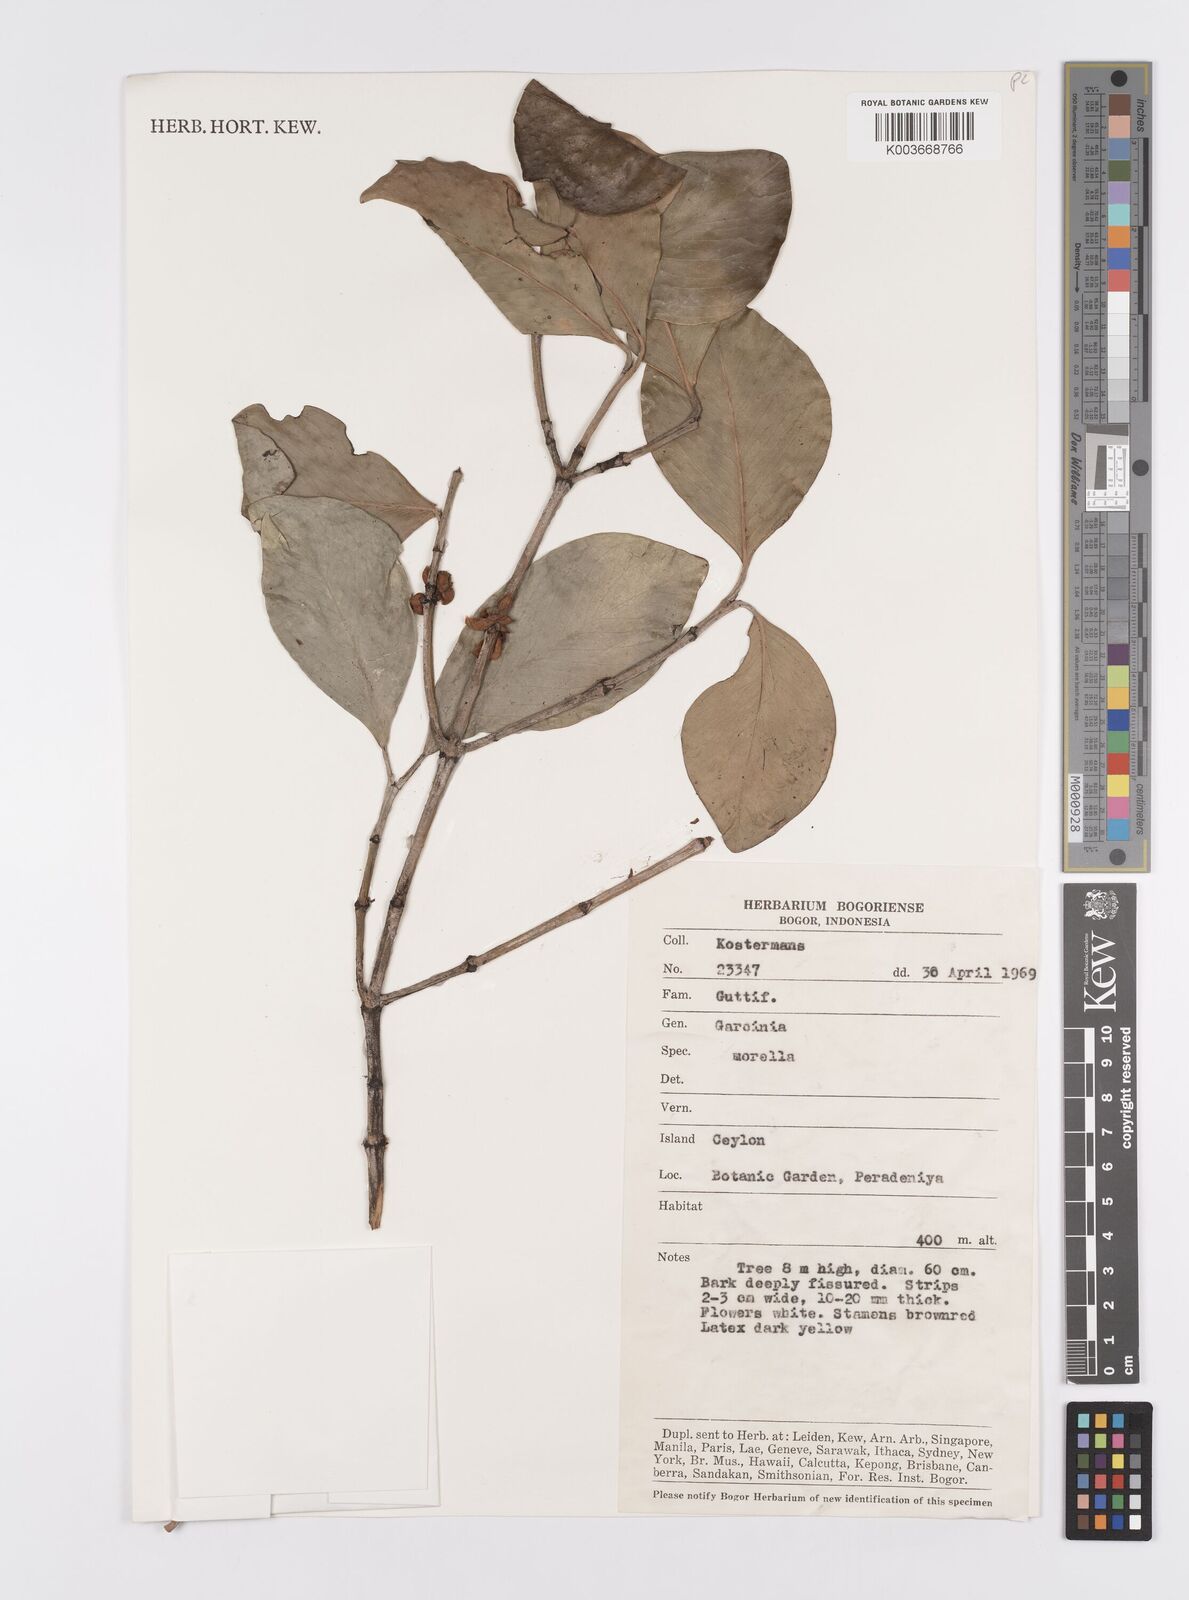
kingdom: Plantae
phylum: Tracheophyta
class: Magnoliopsida
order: Malpighiales
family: Clusiaceae
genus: Garcinia
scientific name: Garcinia morella
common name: Indian gamboge-tree
